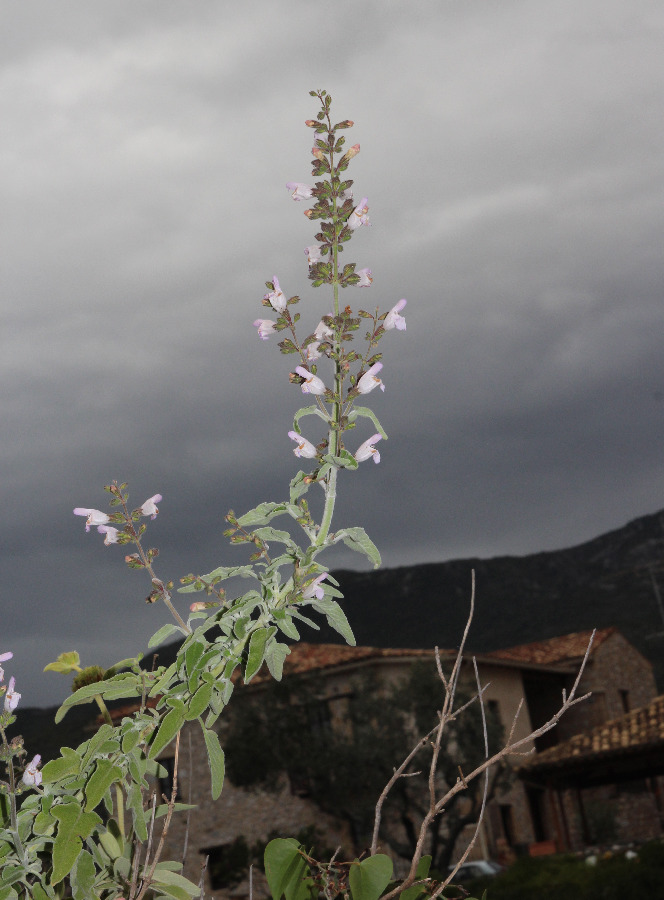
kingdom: Plantae
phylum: Tracheophyta
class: Magnoliopsida
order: Lamiales
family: Lamiaceae
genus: Salvia
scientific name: Salvia fruticosa
